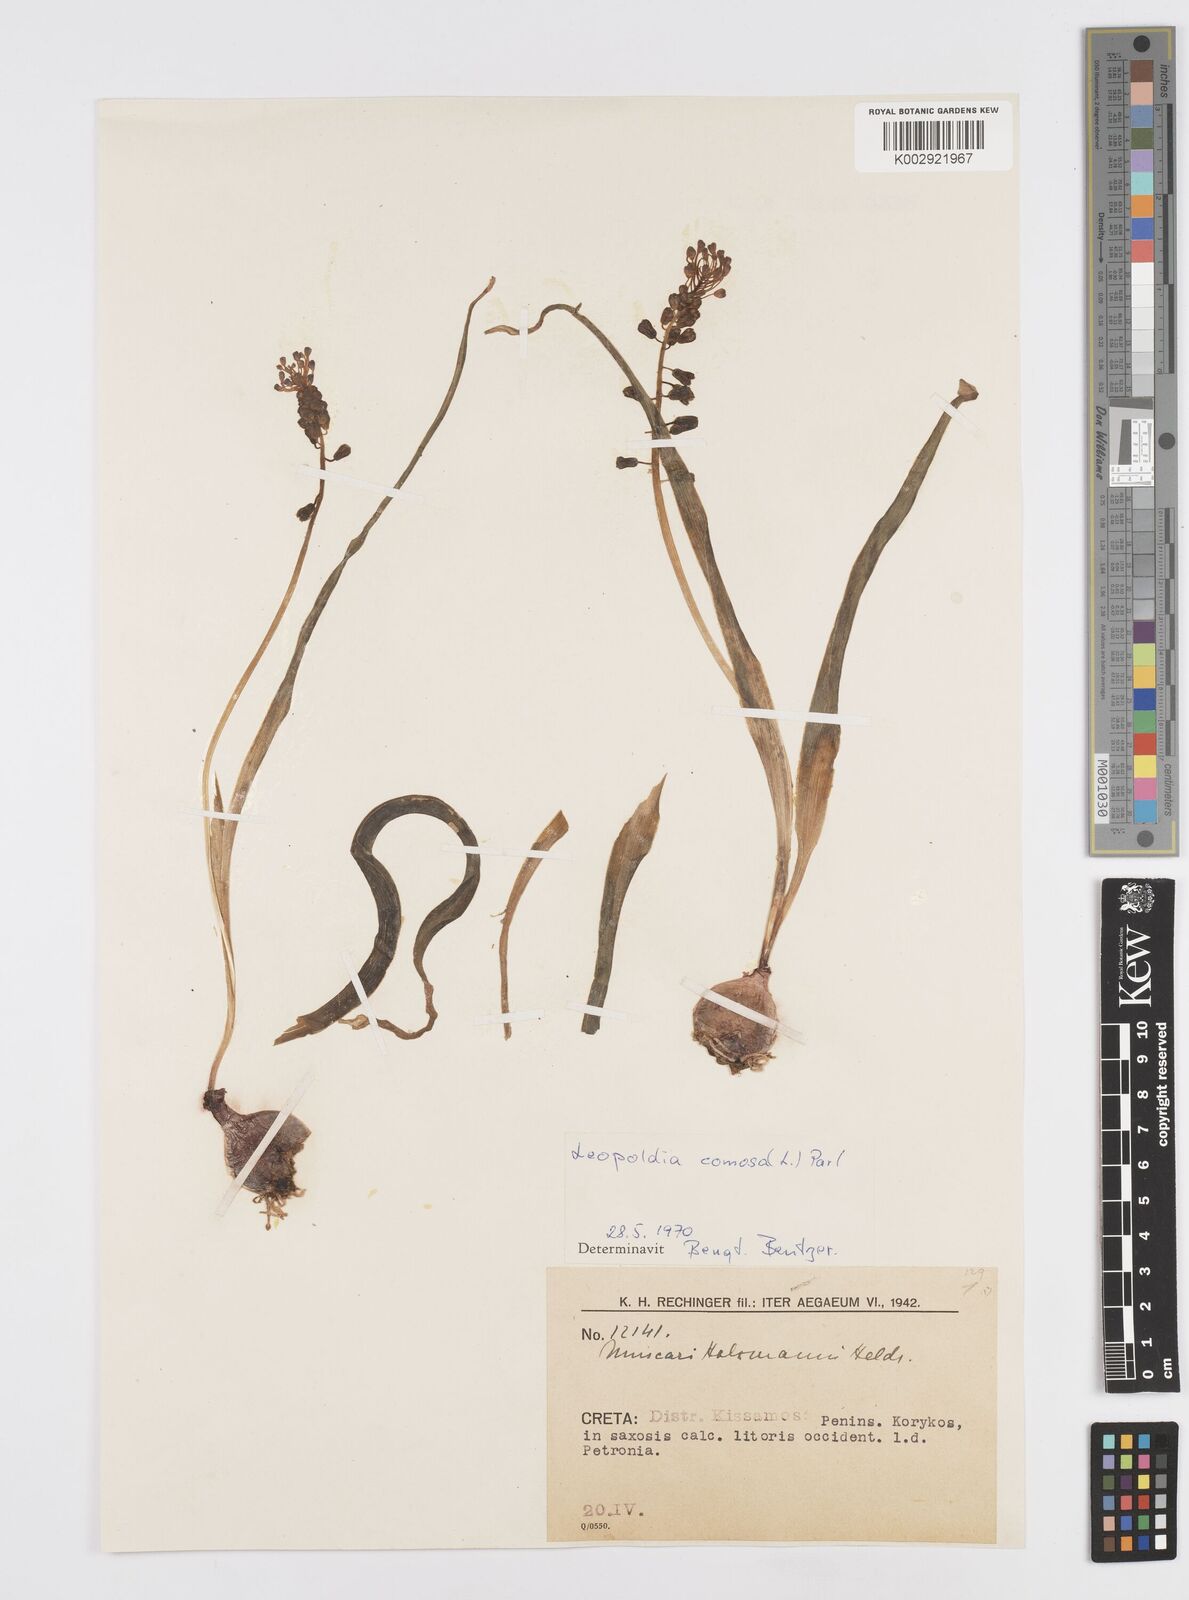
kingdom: Plantae
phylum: Tracheophyta
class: Liliopsida
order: Asparagales
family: Asparagaceae
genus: Muscari
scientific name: Muscari comosum
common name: Tassel hyacinth
